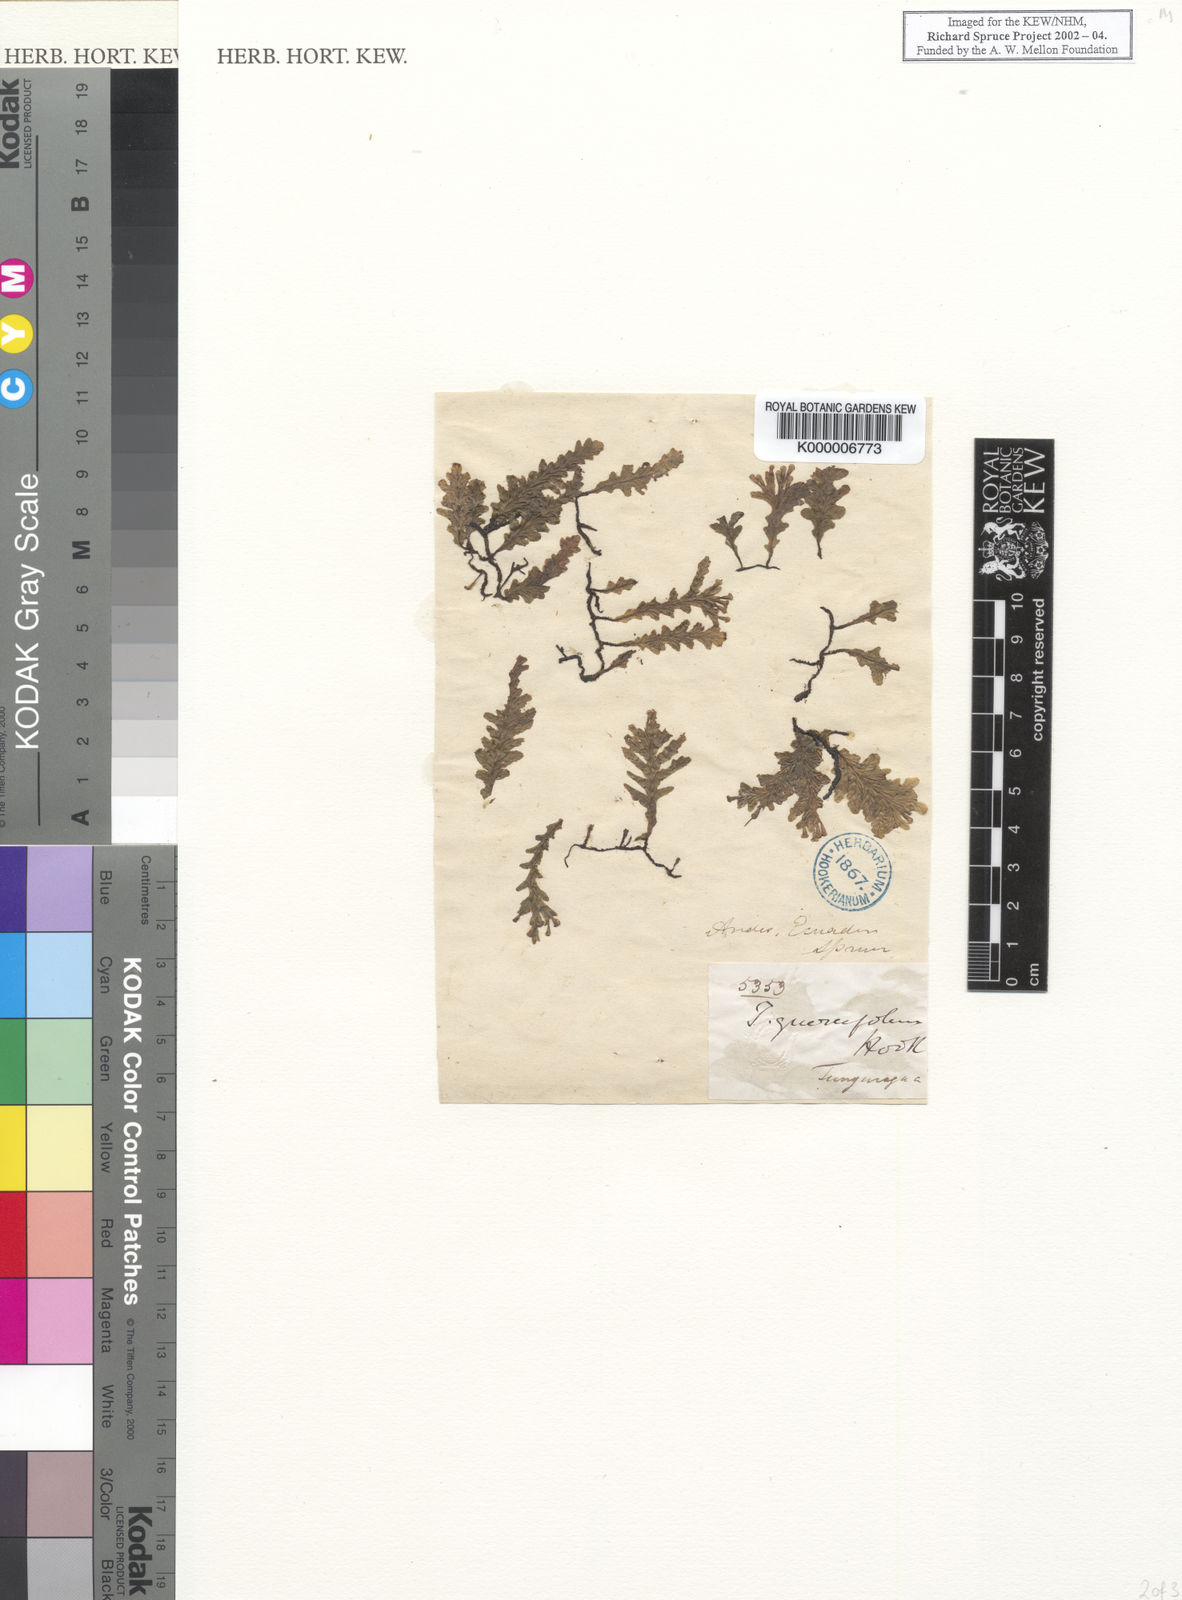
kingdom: Plantae
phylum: Tracheophyta
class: Polypodiopsida
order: Hymenophyllales
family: Hymenophyllaceae
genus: Trichomanes
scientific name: Trichomanes
